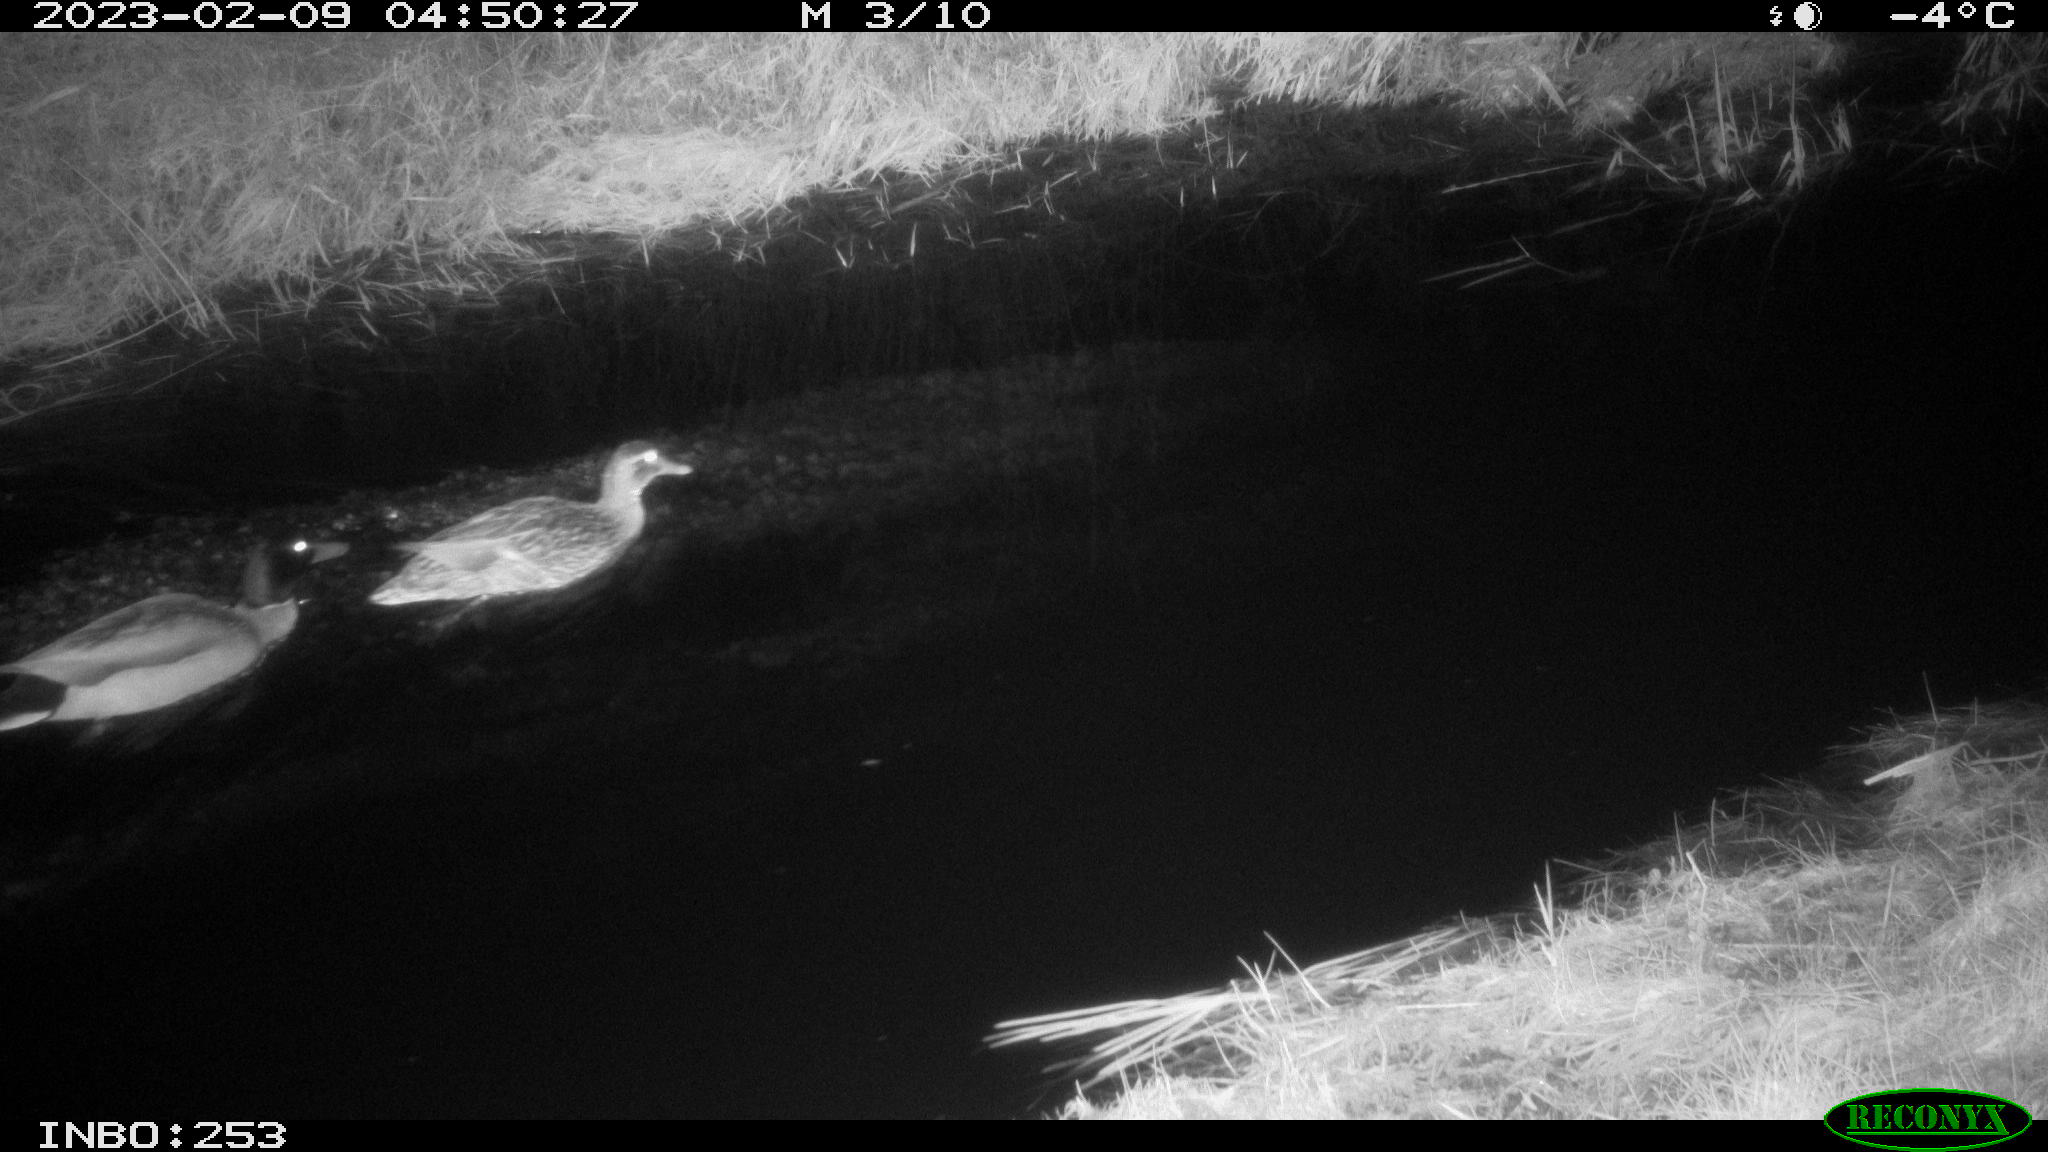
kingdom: Animalia
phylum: Chordata
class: Aves
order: Anseriformes
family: Anatidae
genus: Anas
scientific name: Anas
